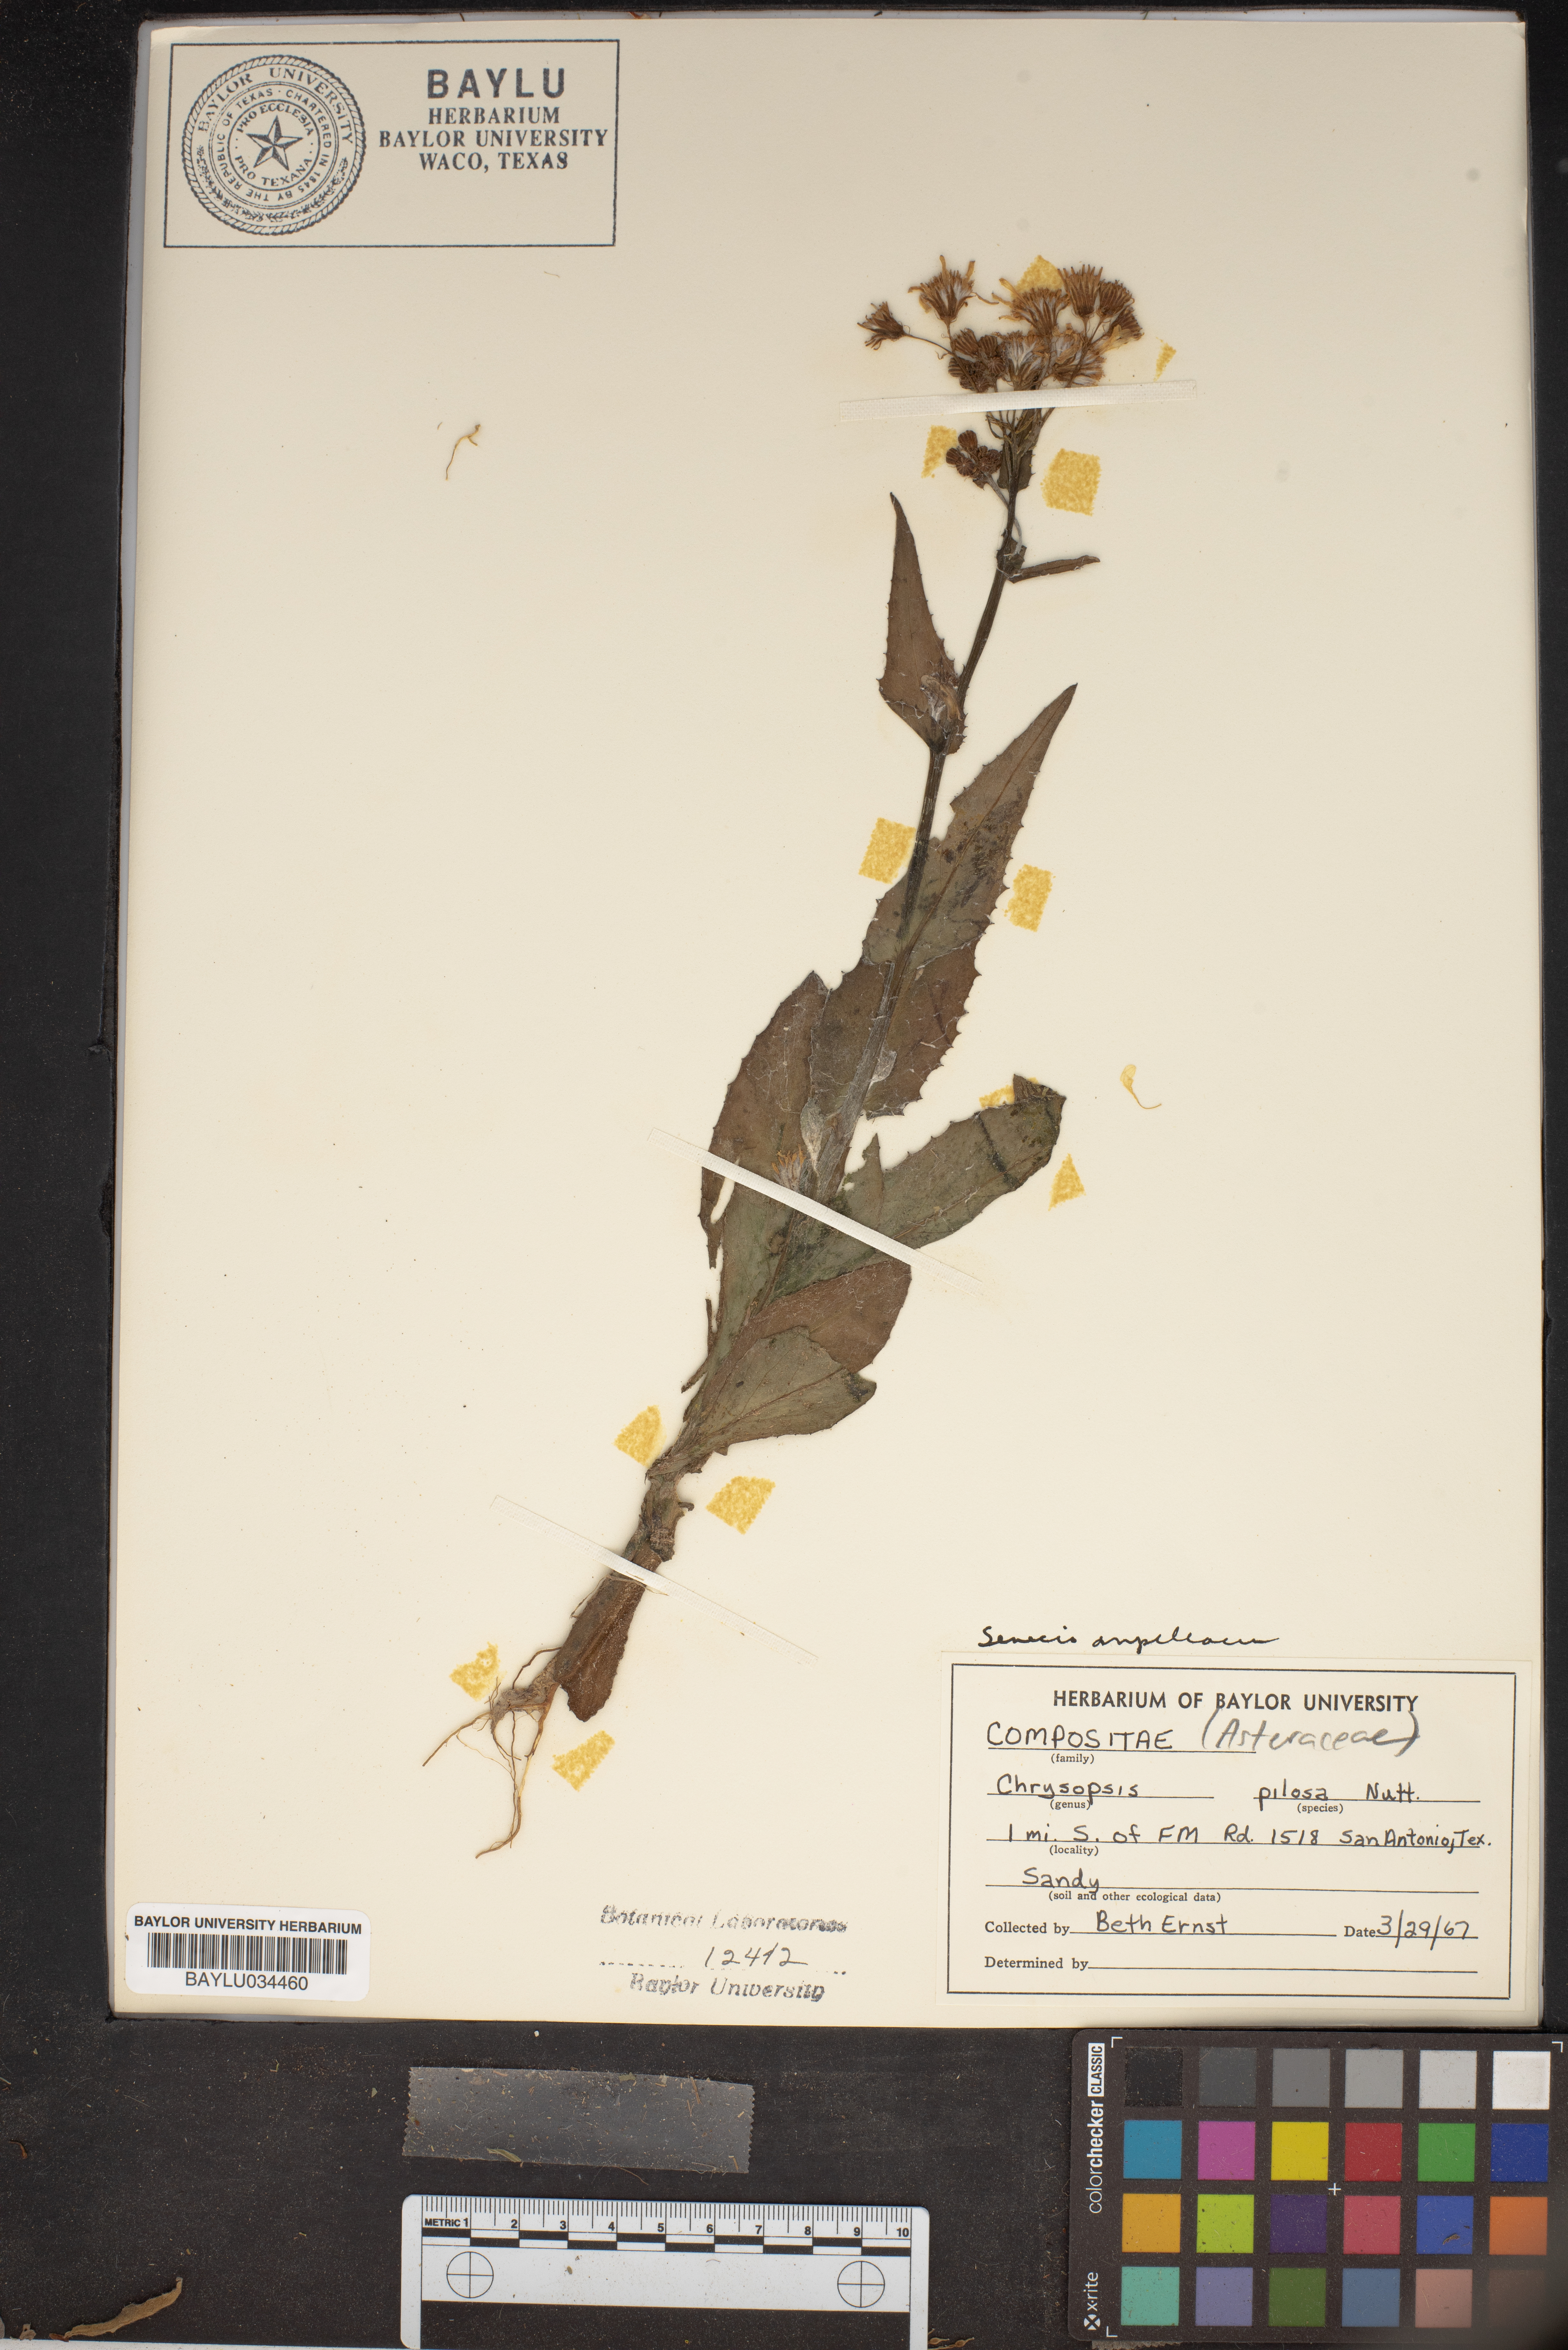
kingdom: Plantae
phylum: Tracheophyta
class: Magnoliopsida
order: Asterales
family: Asteraceae
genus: Bradburia
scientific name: Bradburia pilosa
